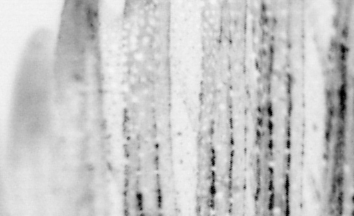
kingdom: Animalia
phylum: Chordata
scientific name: Chordata
